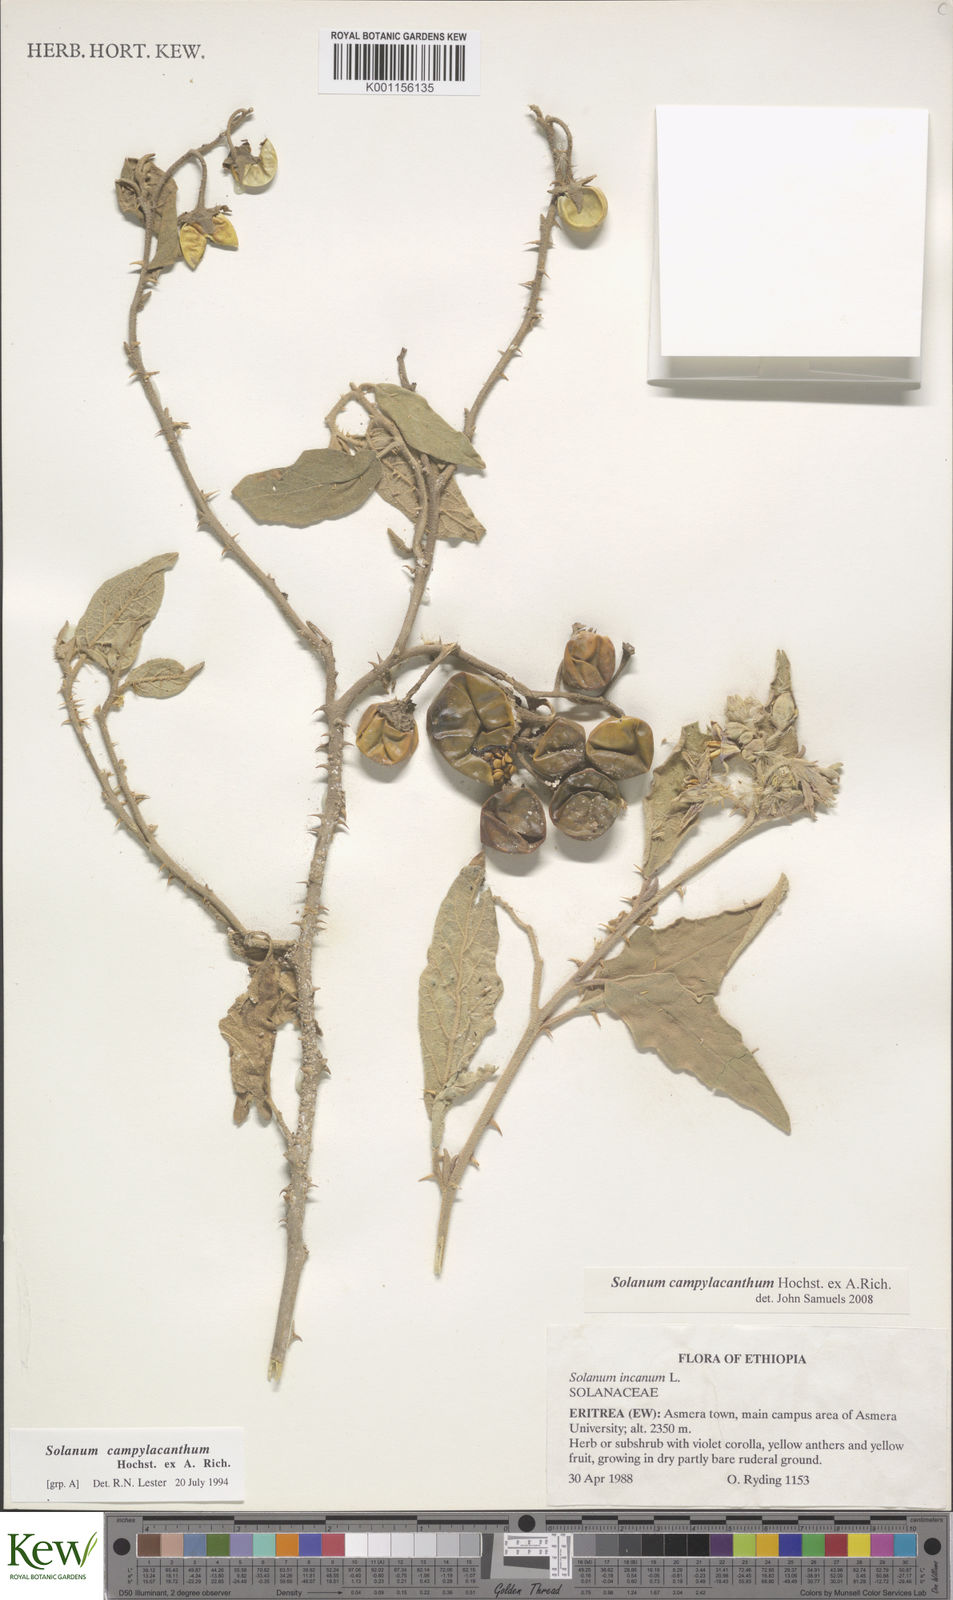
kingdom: Plantae
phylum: Tracheophyta
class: Magnoliopsida
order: Solanales
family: Solanaceae
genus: Solanum
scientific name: Solanum campylacanthum
